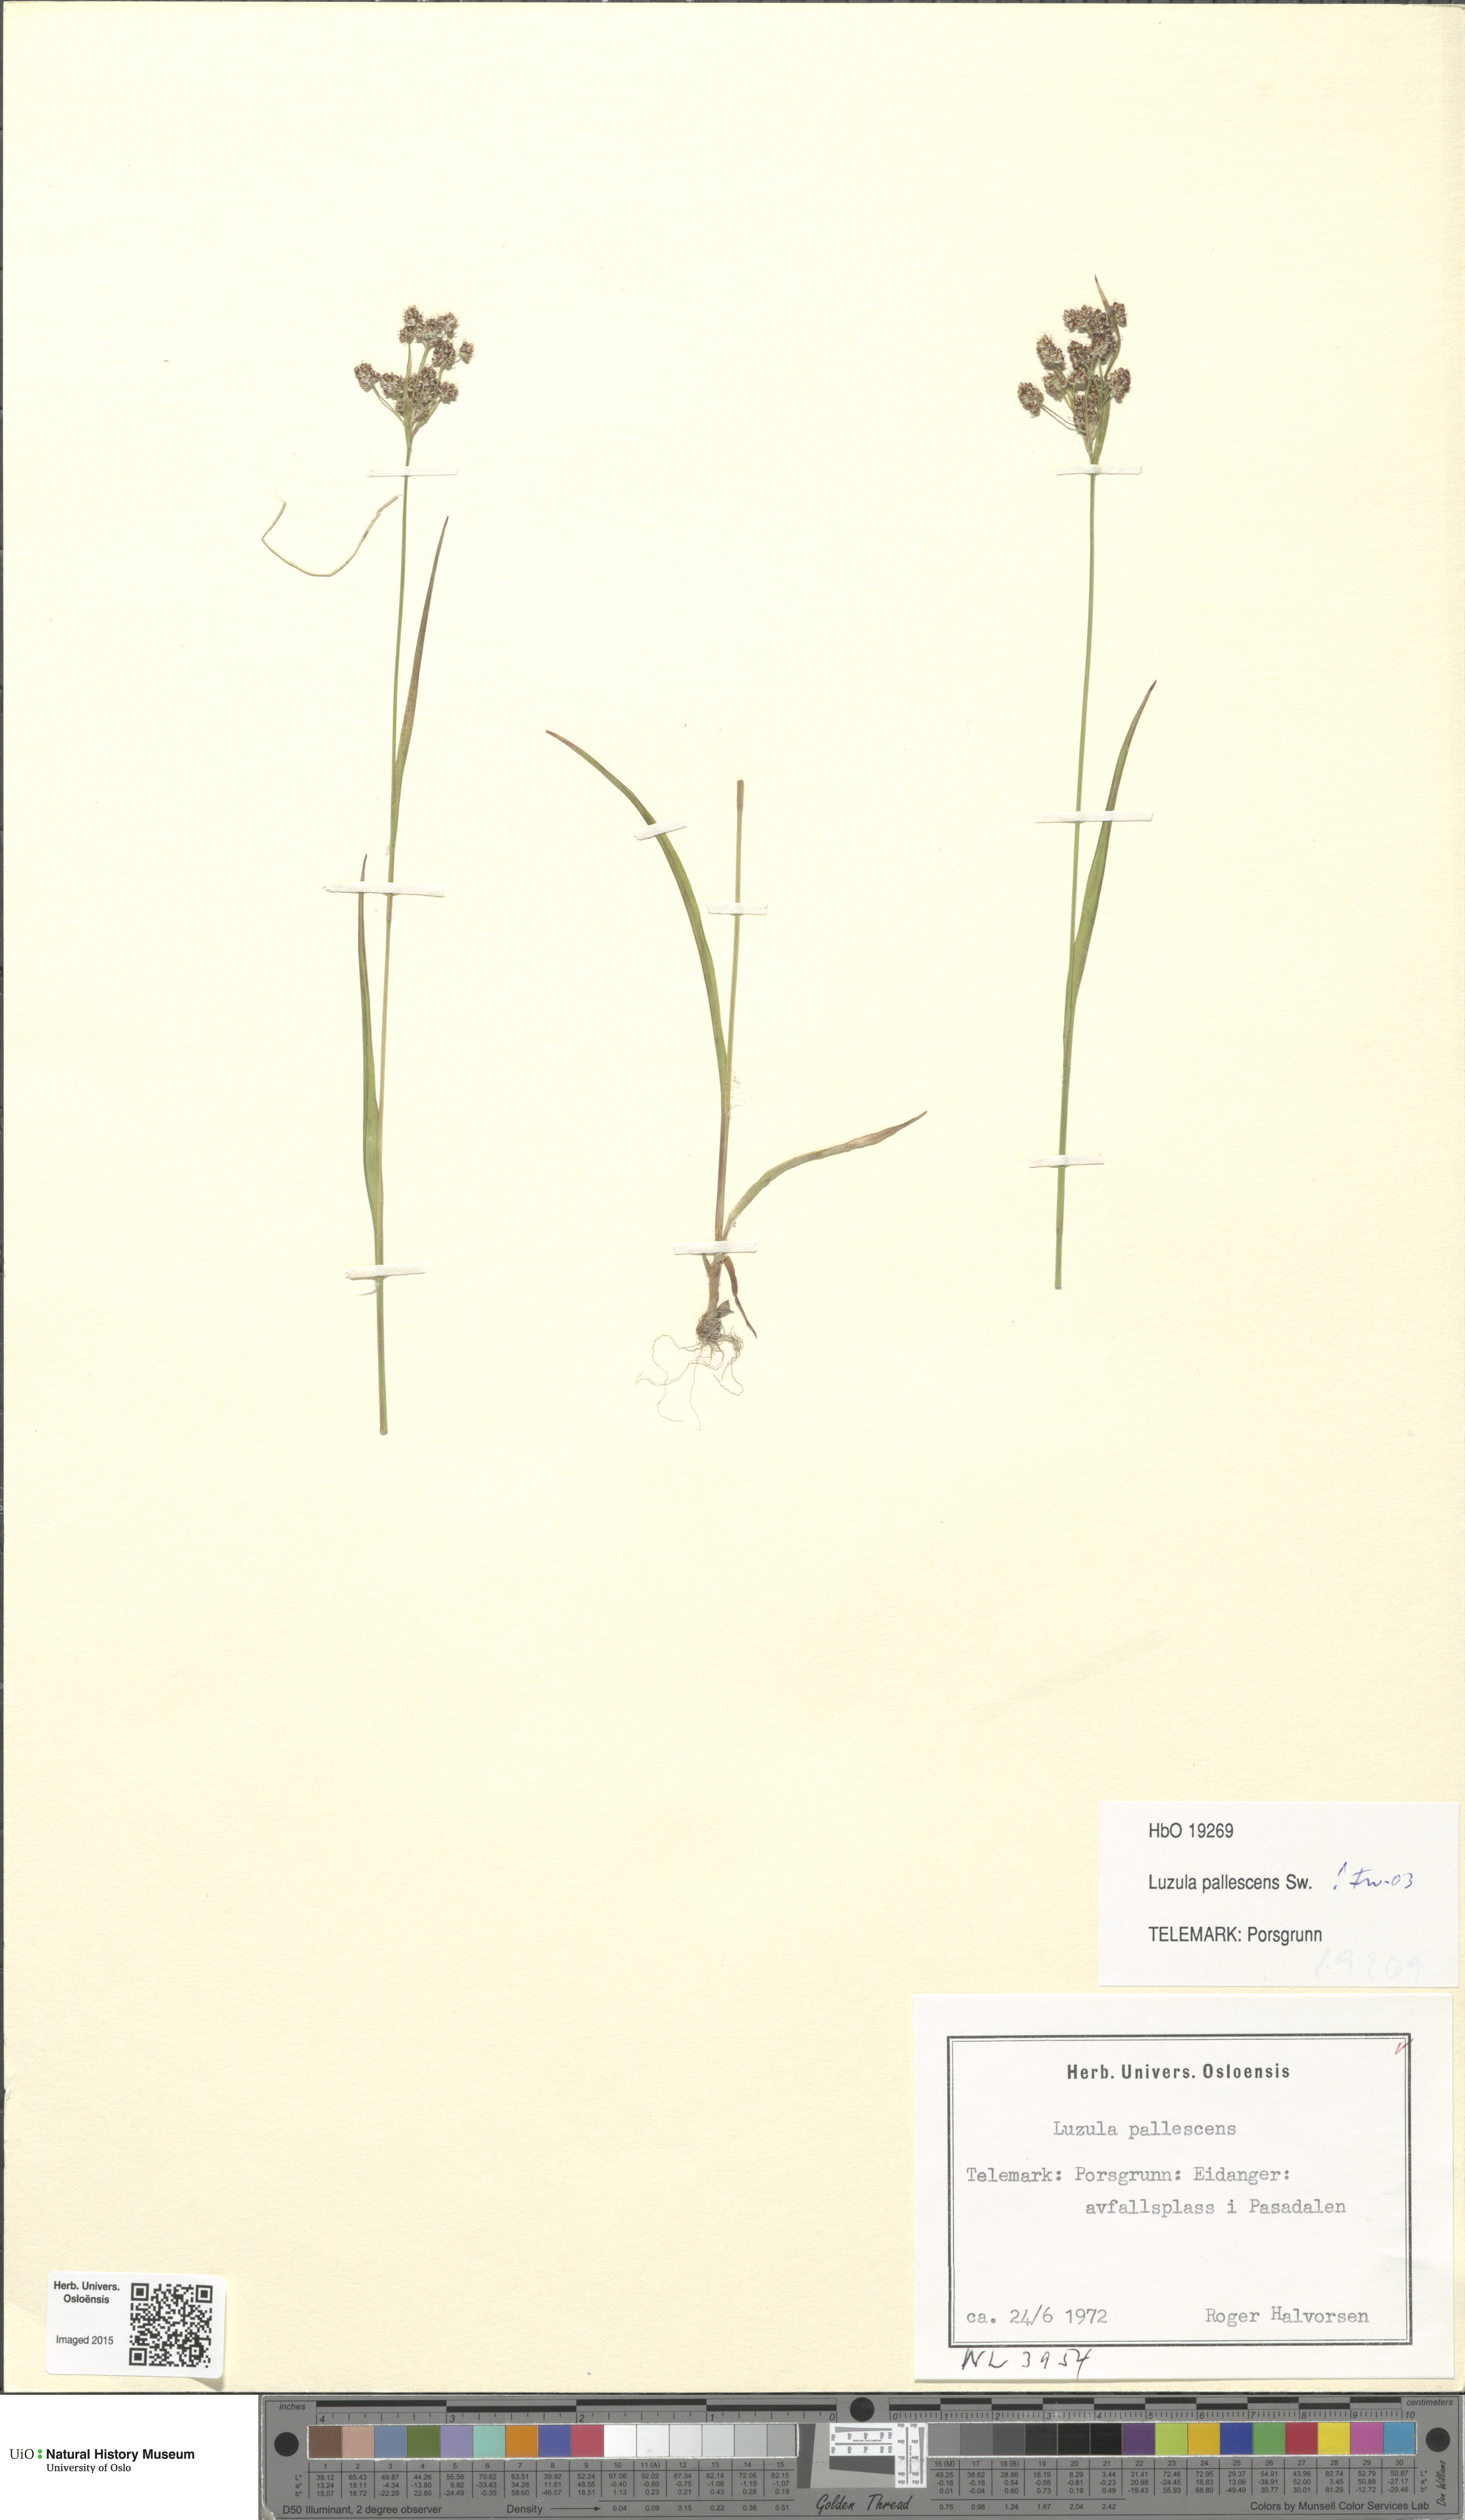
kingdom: Plantae
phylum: Tracheophyta
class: Liliopsida
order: Poales
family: Juncaceae
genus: Luzula
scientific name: Luzula pallescens
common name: Fen wood-rush
